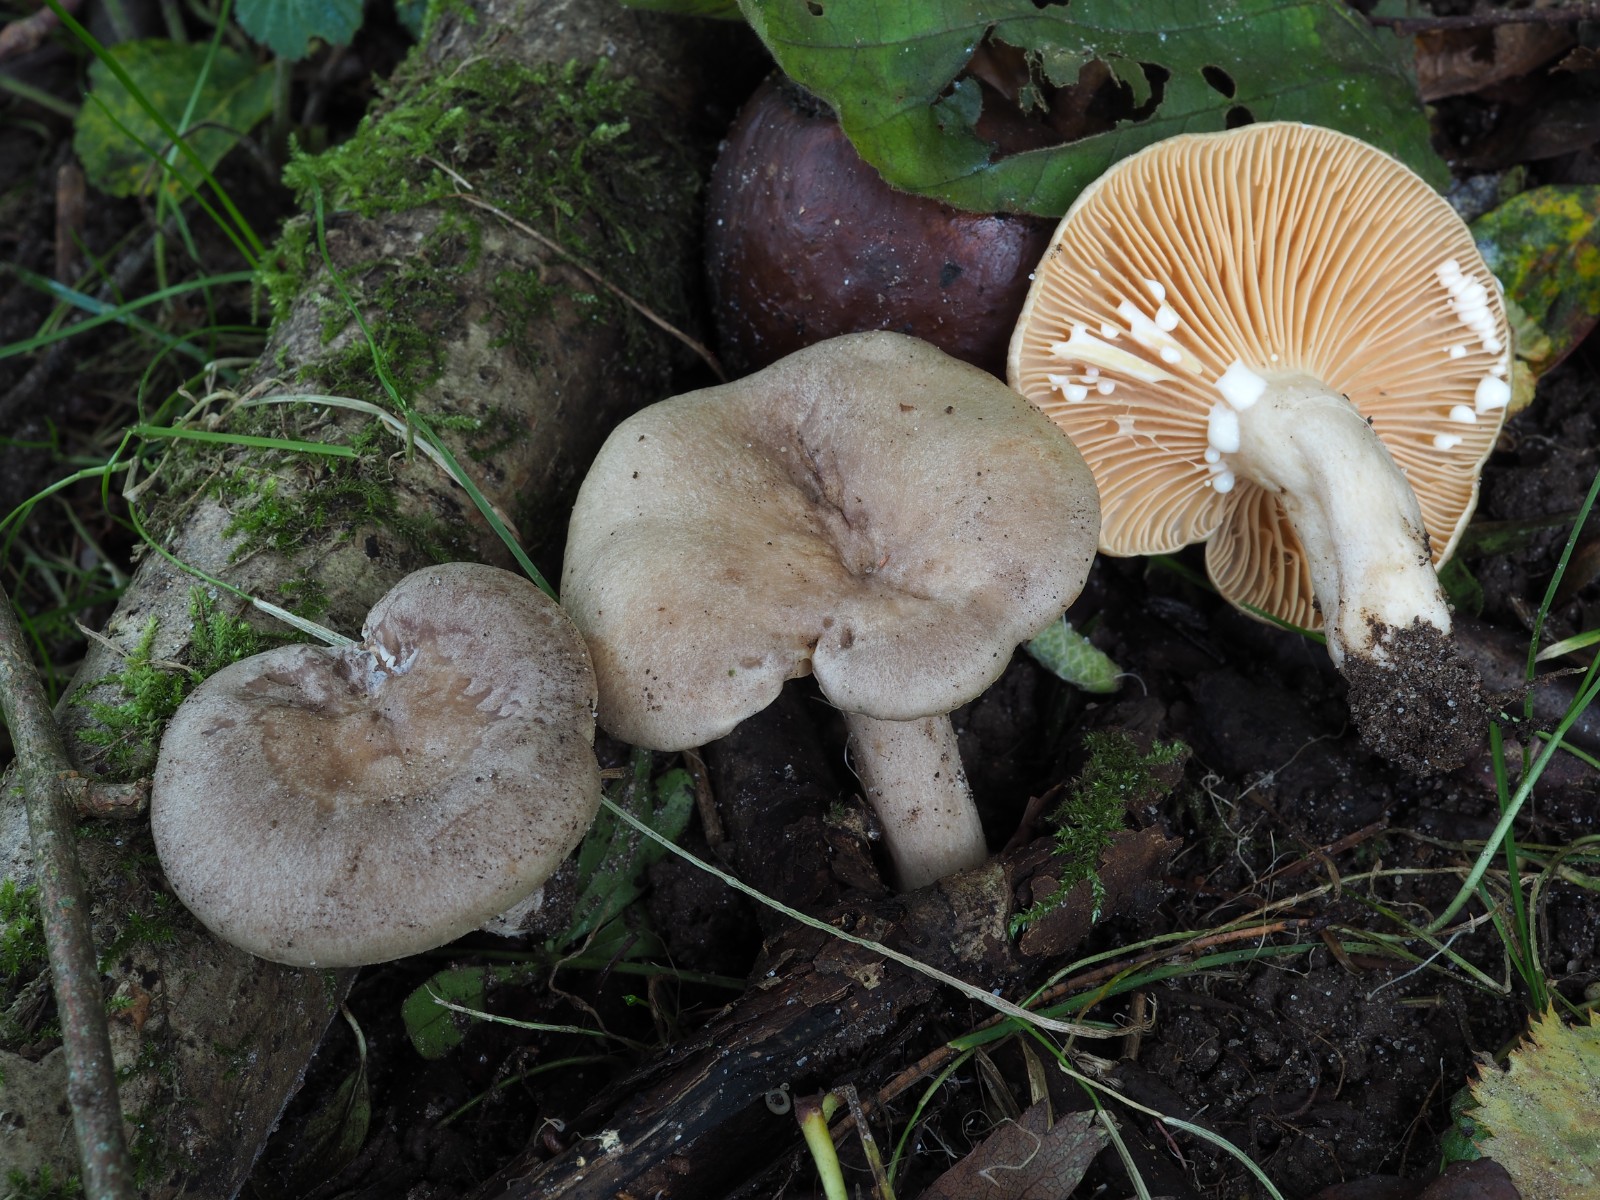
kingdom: Fungi
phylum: Basidiomycota
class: Agaricomycetes
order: Russulales
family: Russulaceae
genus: Lactarius
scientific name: Lactarius pyrogalus
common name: hassel-mælkehat
